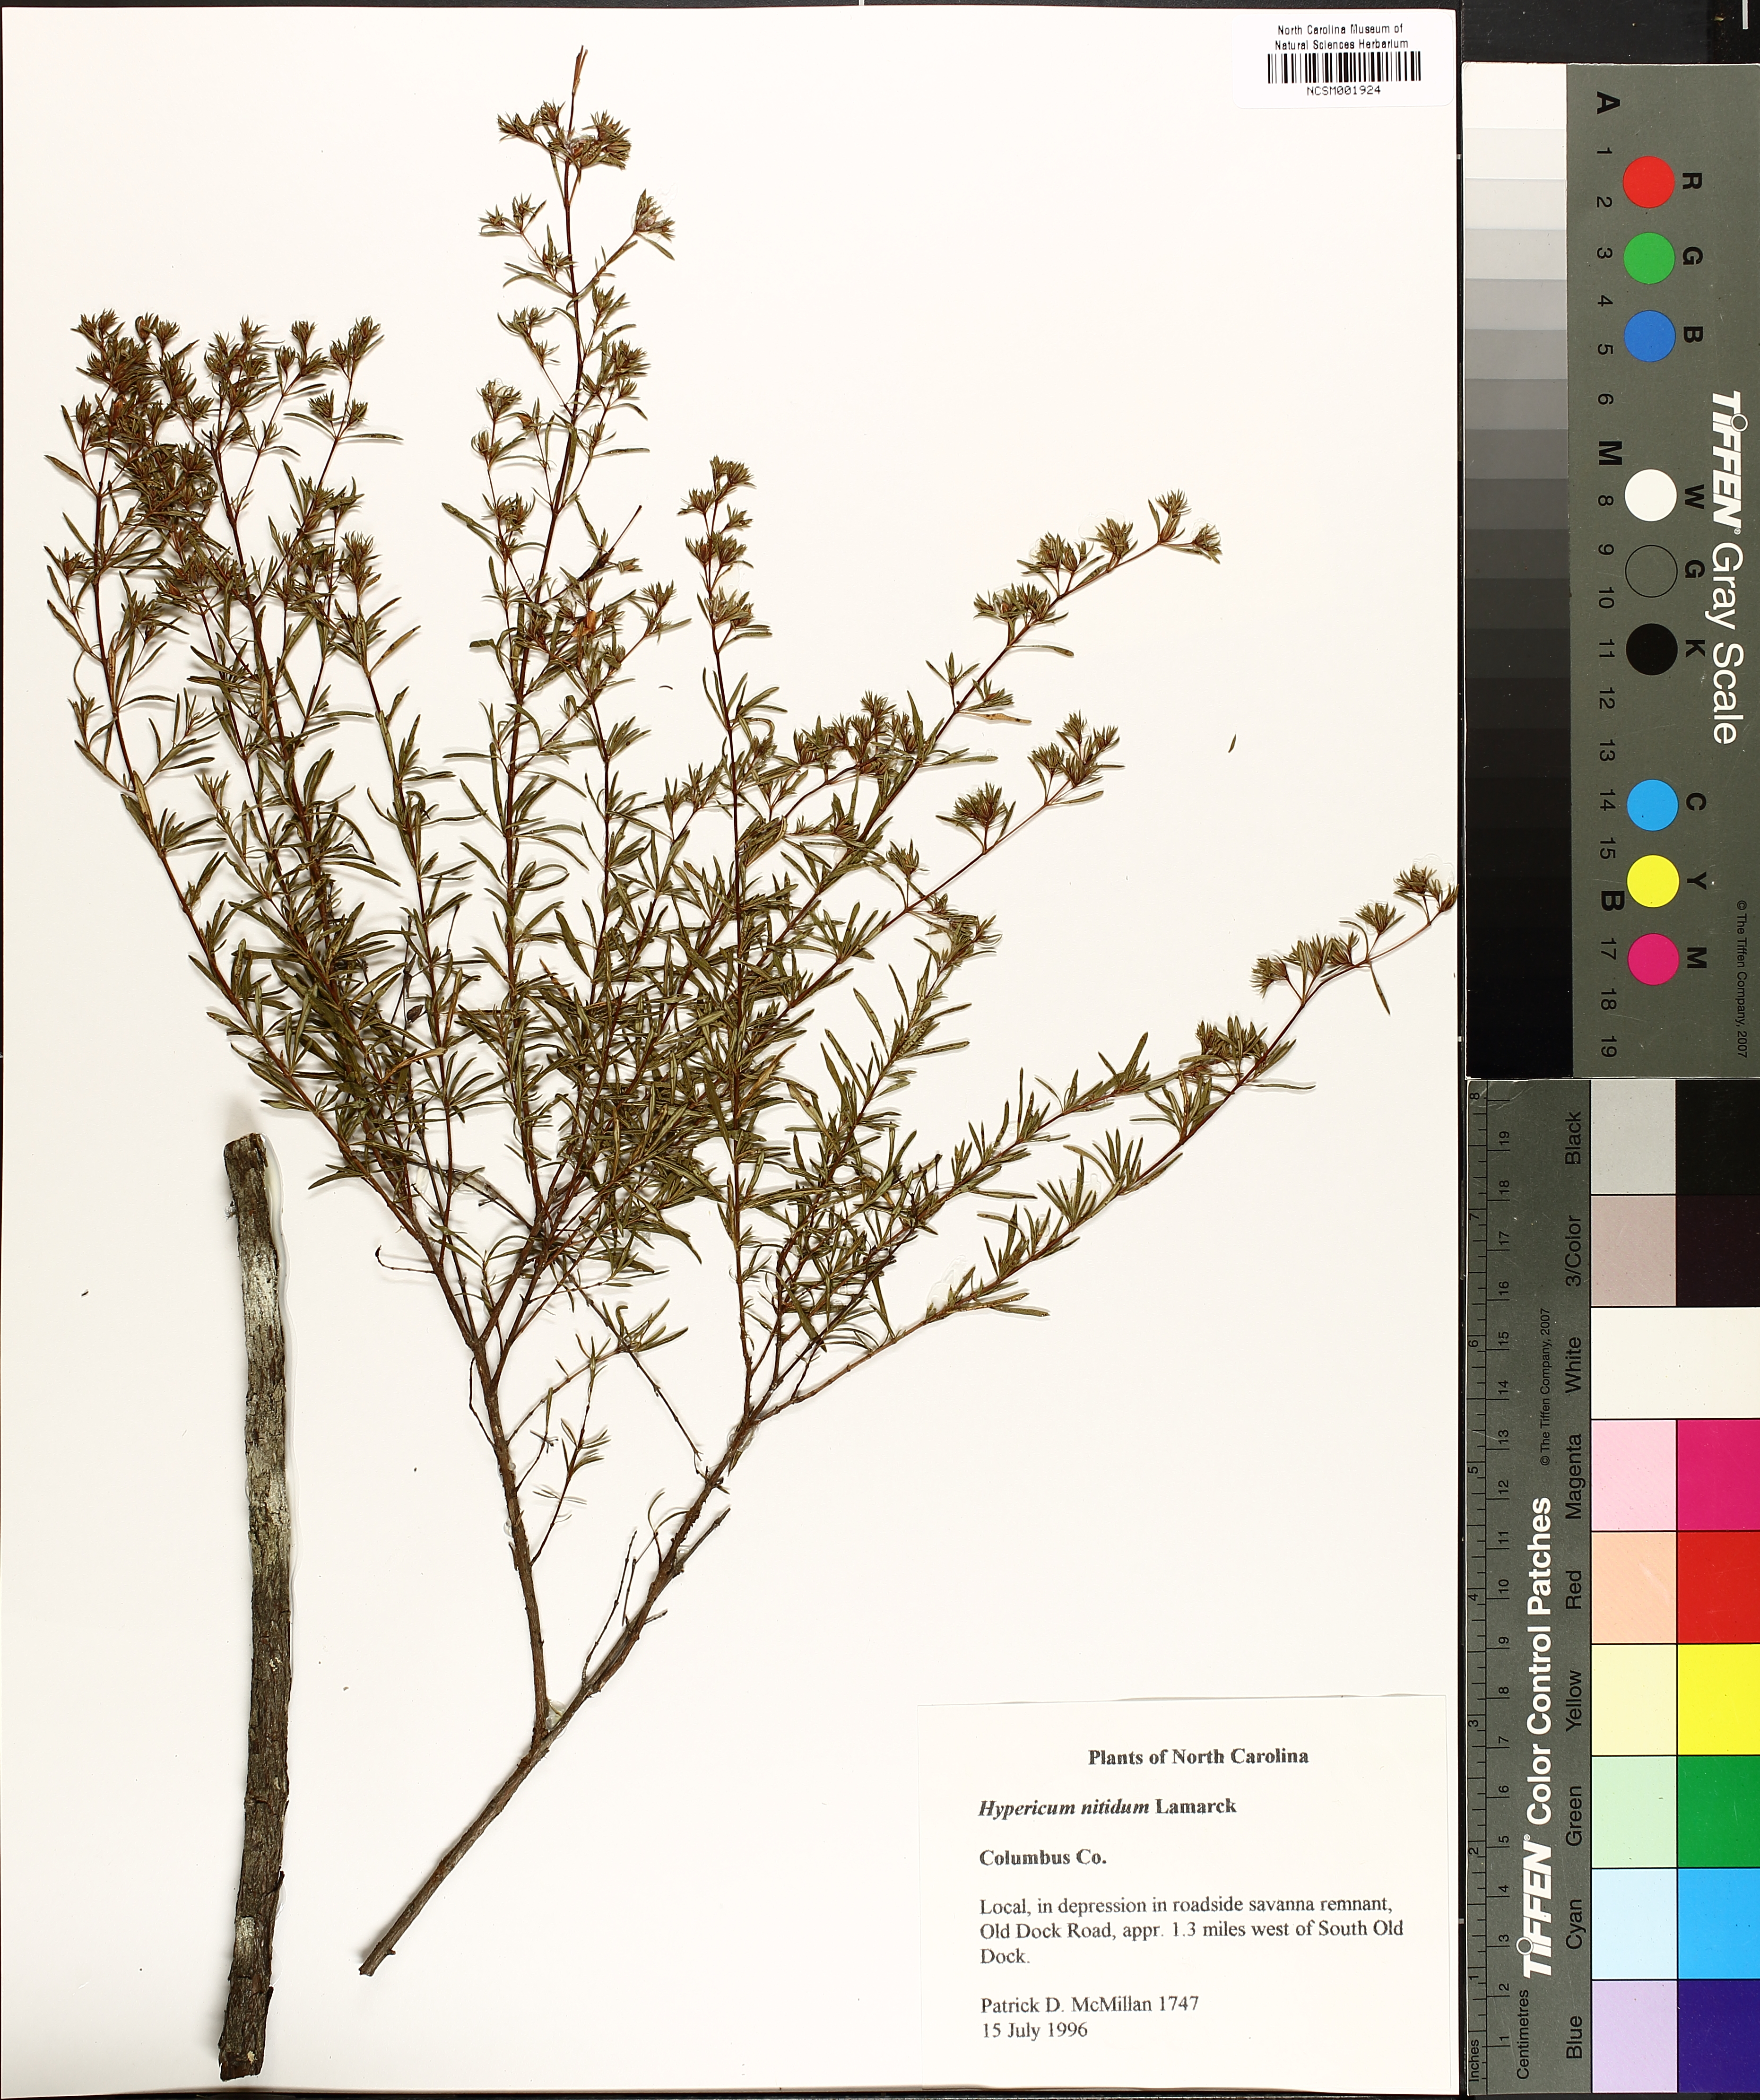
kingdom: Plantae
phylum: Tracheophyta
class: Magnoliopsida
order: Malpighiales
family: Hypericaceae
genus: Hypericum
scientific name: Hypericum nitidum
